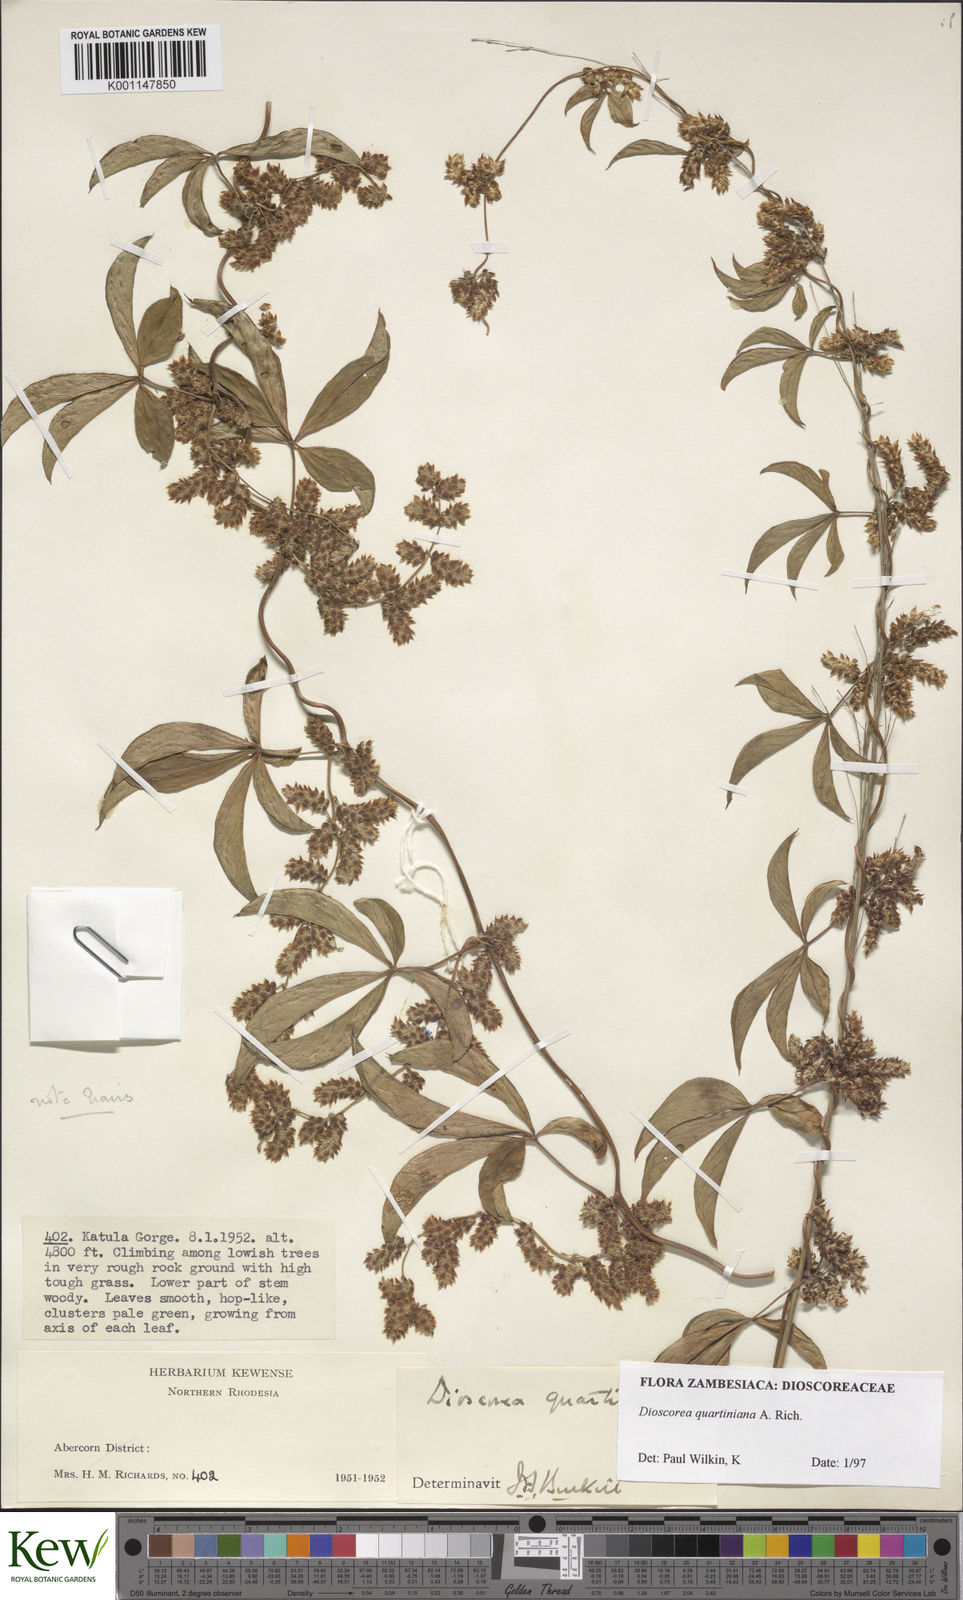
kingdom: Plantae
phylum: Tracheophyta
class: Liliopsida
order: Dioscoreales
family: Dioscoreaceae
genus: Dioscorea
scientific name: Dioscorea quartiniana
